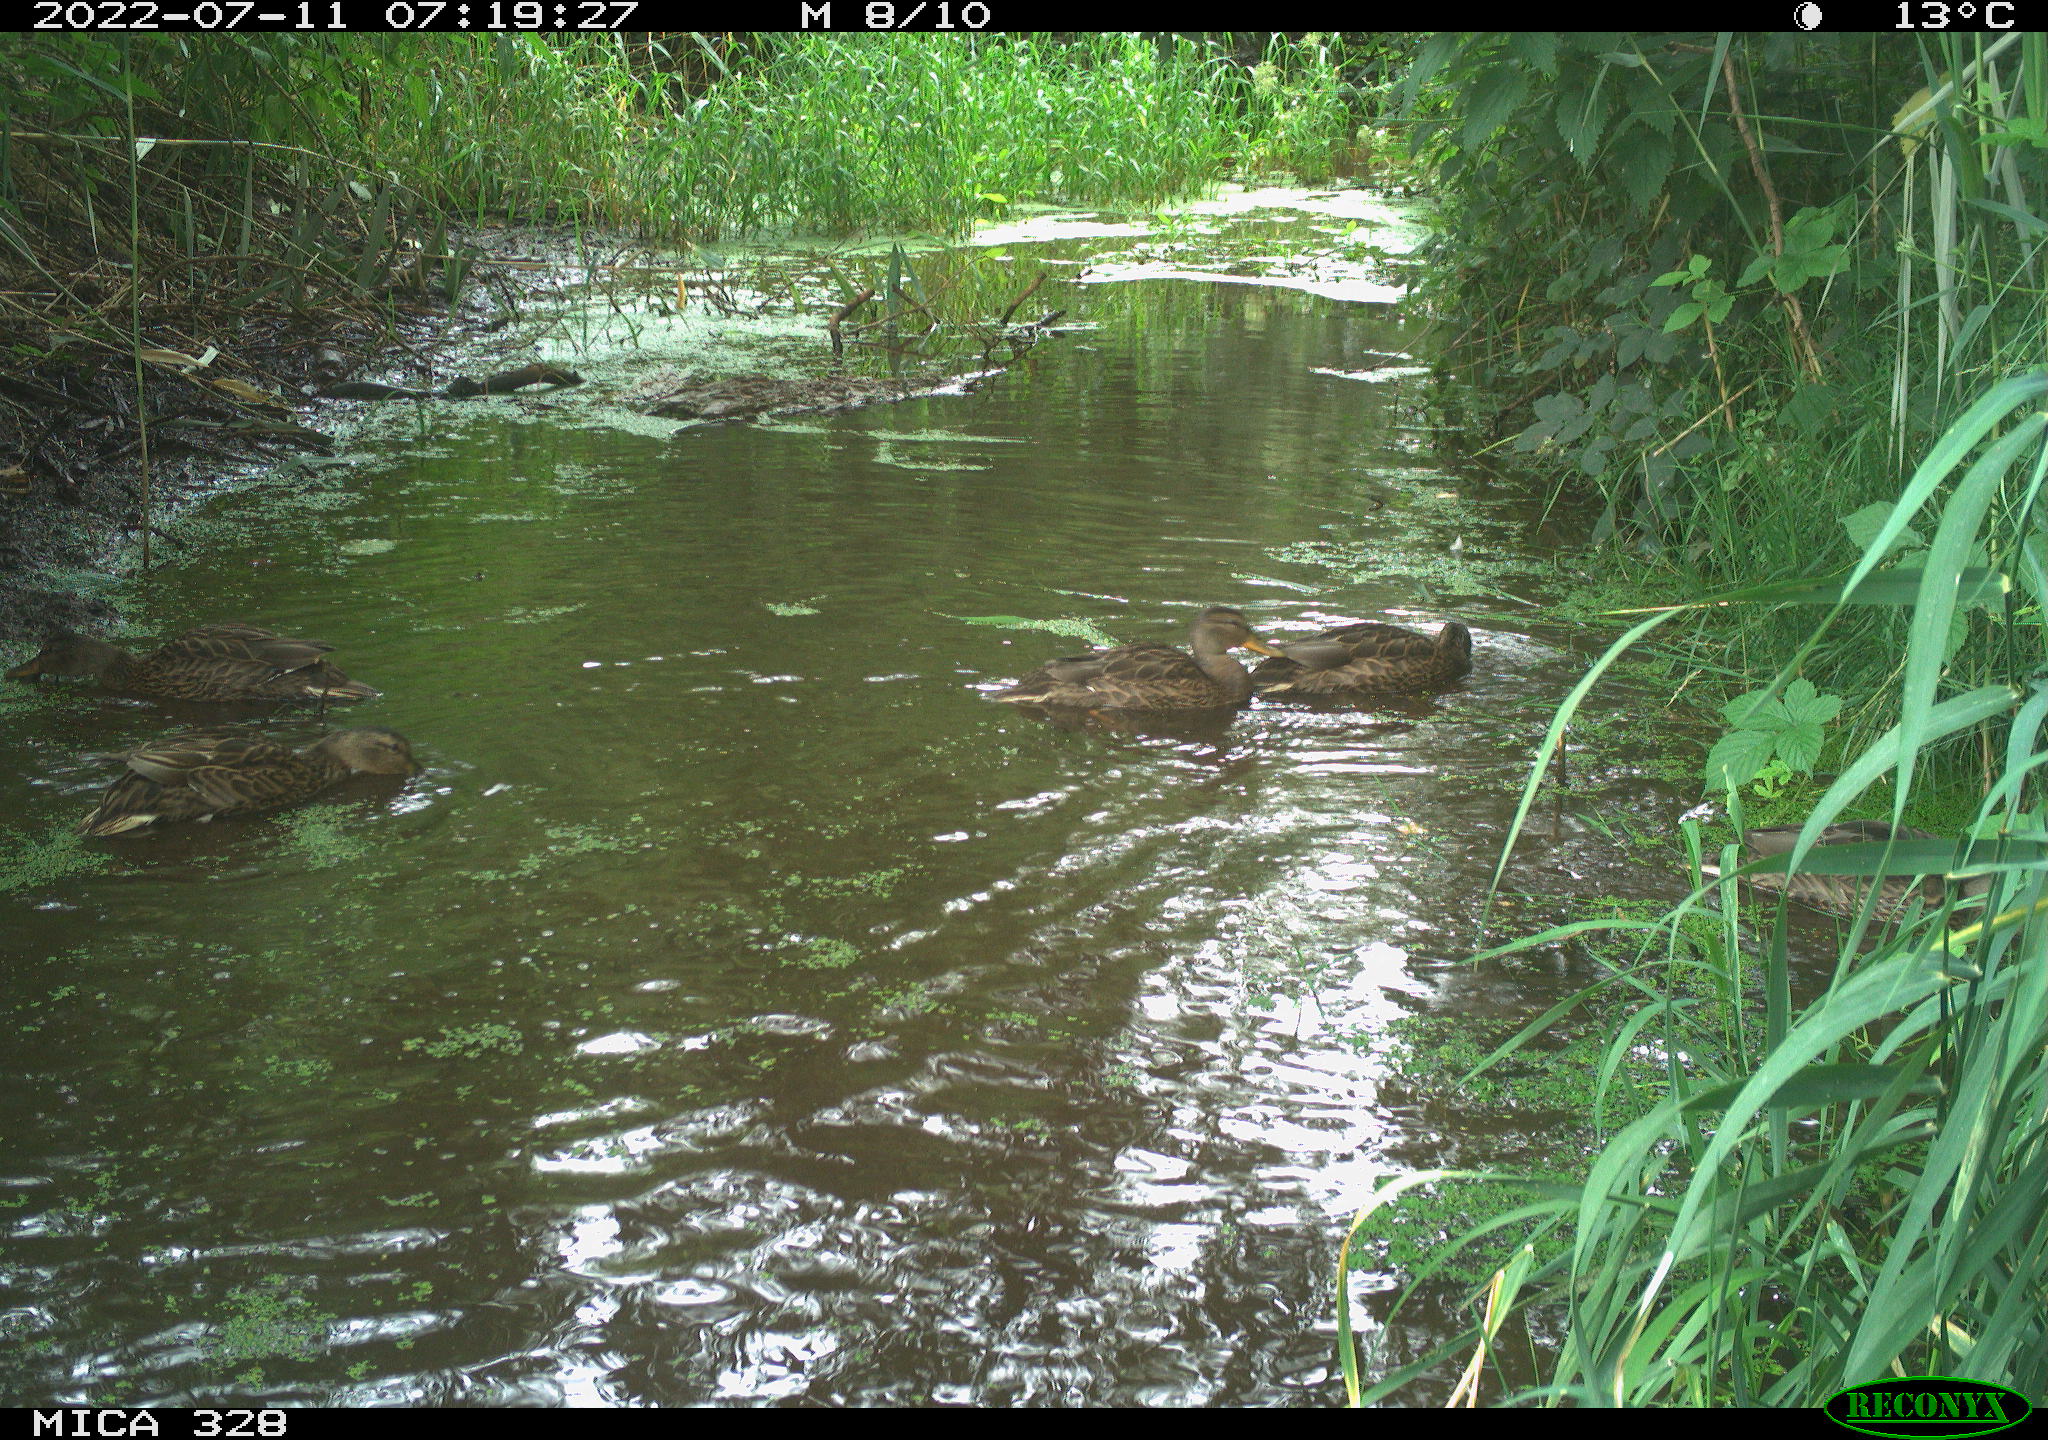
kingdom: Animalia
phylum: Chordata
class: Aves
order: Anseriformes
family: Anatidae
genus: Anas
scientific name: Anas
